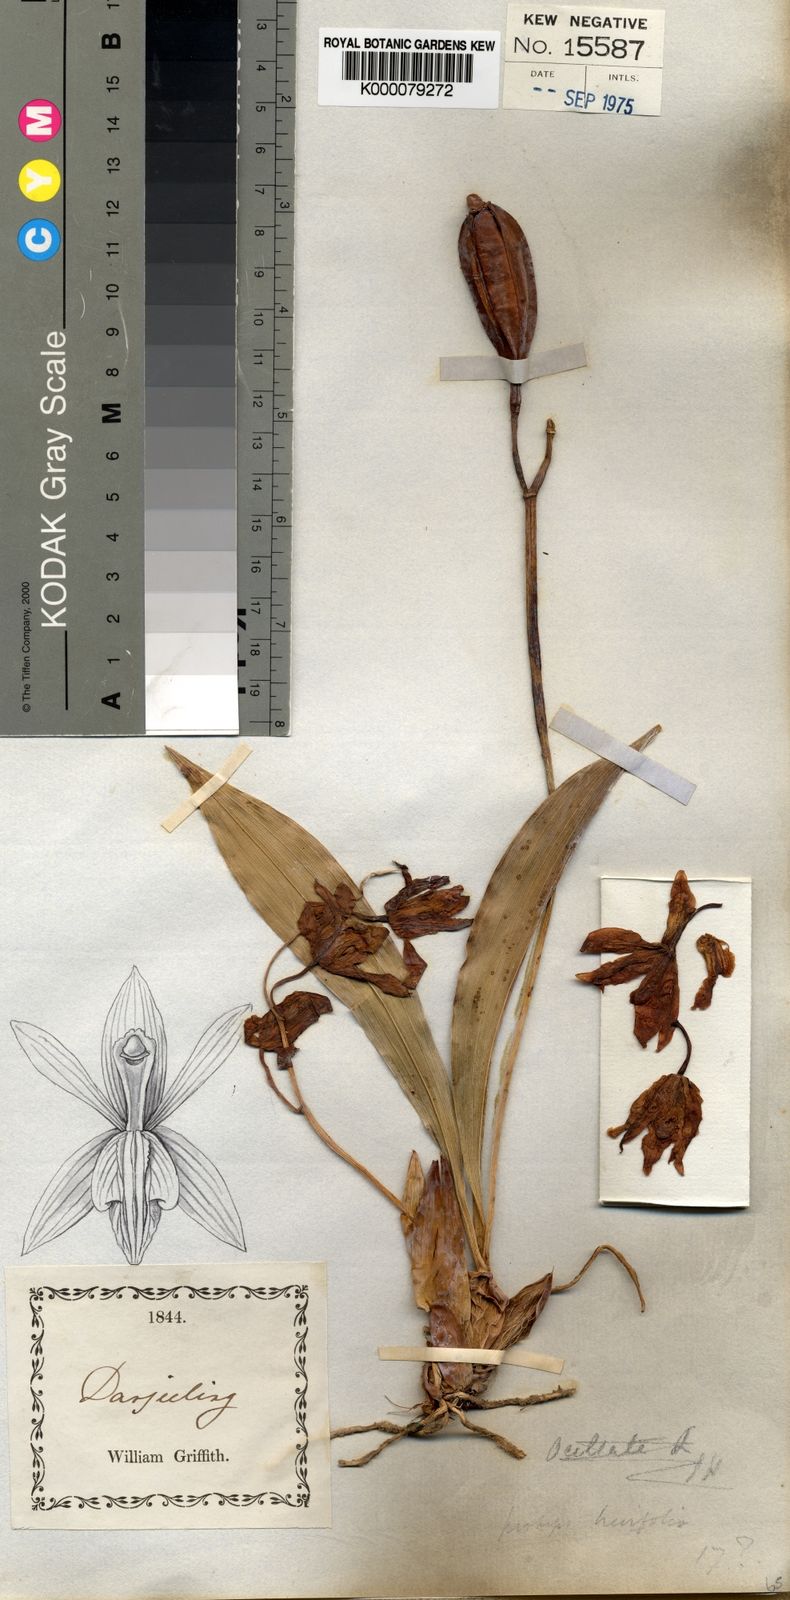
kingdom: Plantae
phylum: Tracheophyta
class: Liliopsida
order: Asparagales
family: Orchidaceae
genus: Coelogyne
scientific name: Coelogyne
